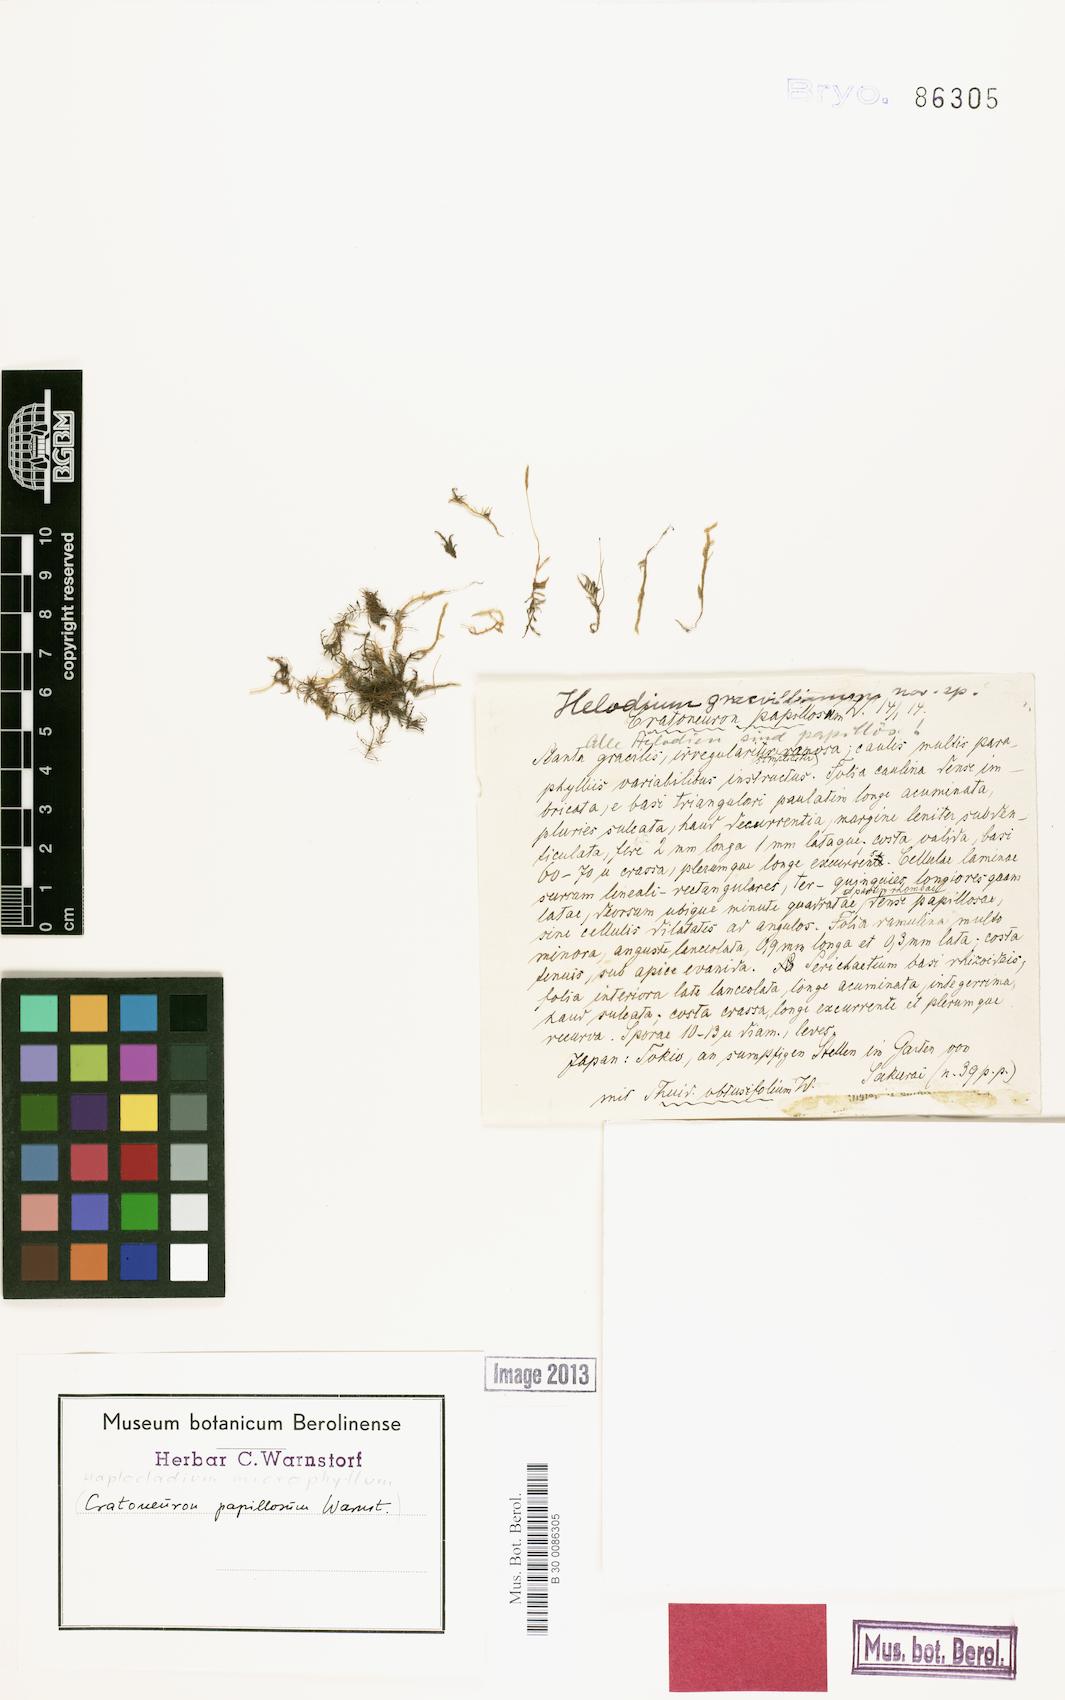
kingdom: Plantae
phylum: Bryophyta
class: Bryopsida
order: Hypnales
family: Leskeaceae
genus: Haplocladium
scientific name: Haplocladium microphyllum
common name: Tiny-leaved haplocladium
